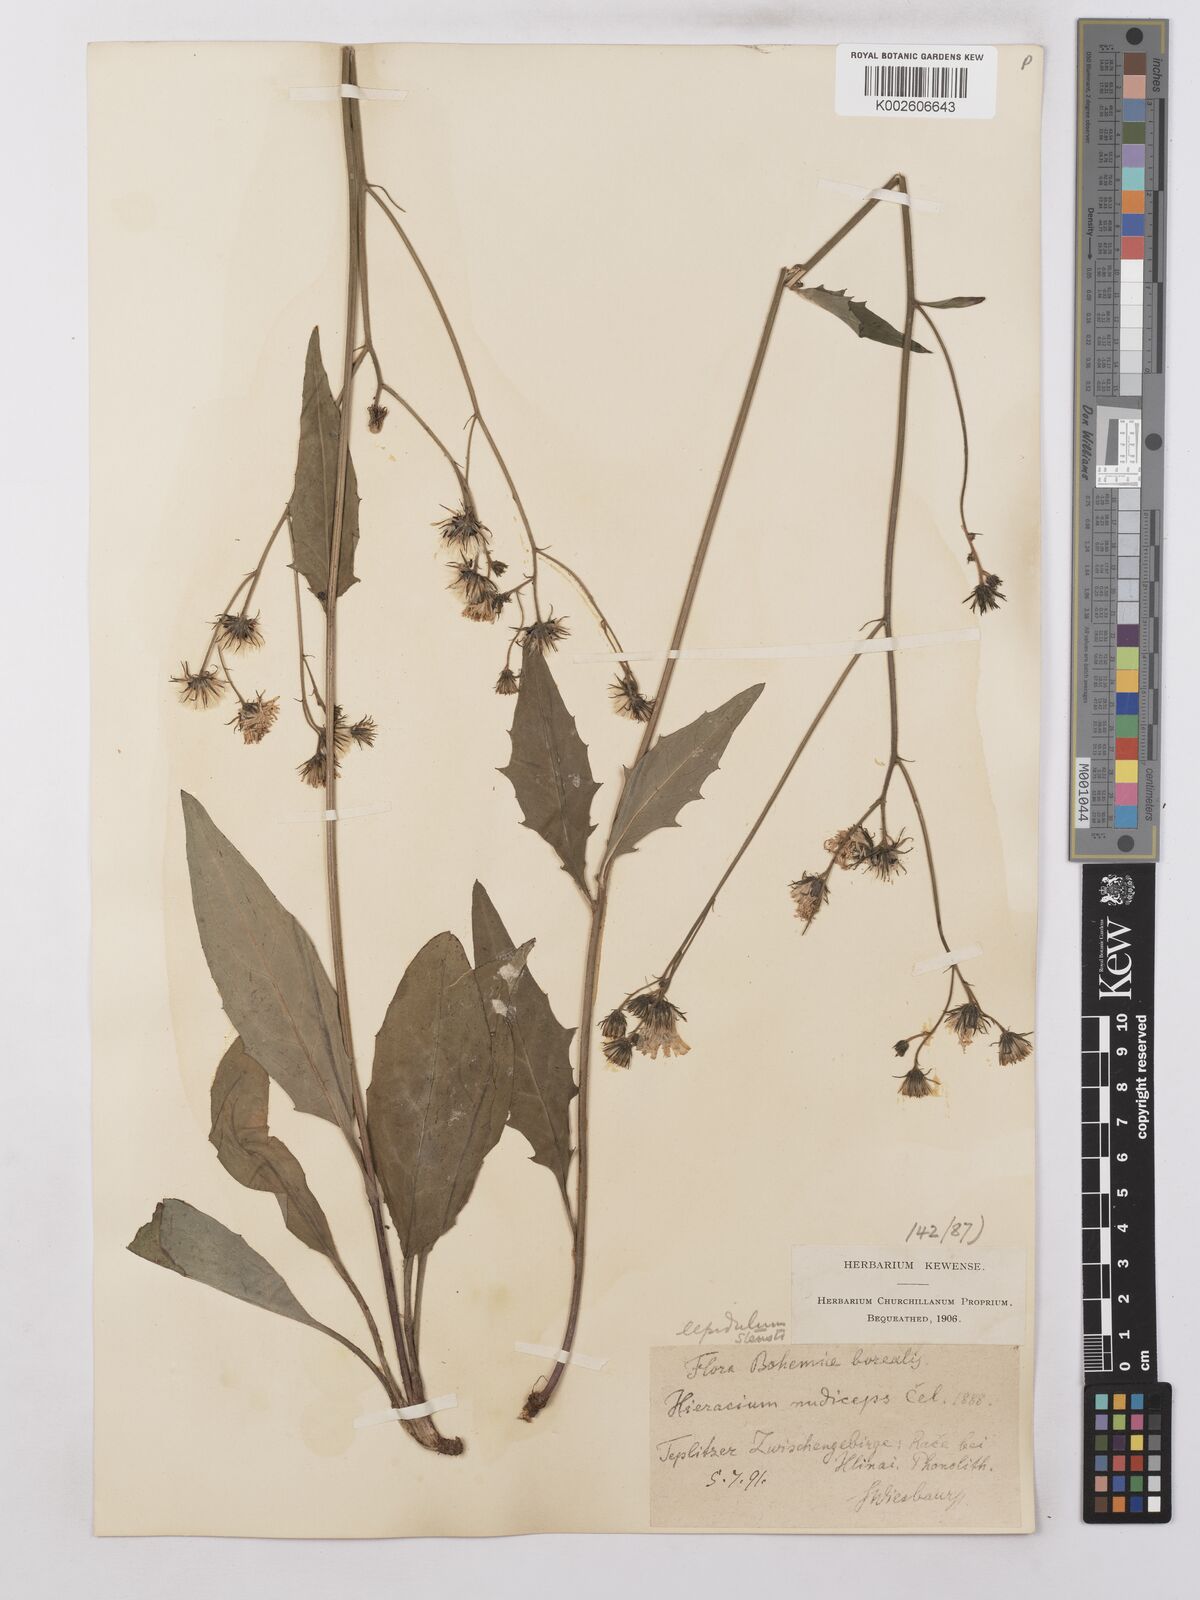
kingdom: Plantae
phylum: Tracheophyta
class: Magnoliopsida
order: Asterales
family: Asteraceae
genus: Hieracium
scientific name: Hieracium lachenalii
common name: Common hawkweed
